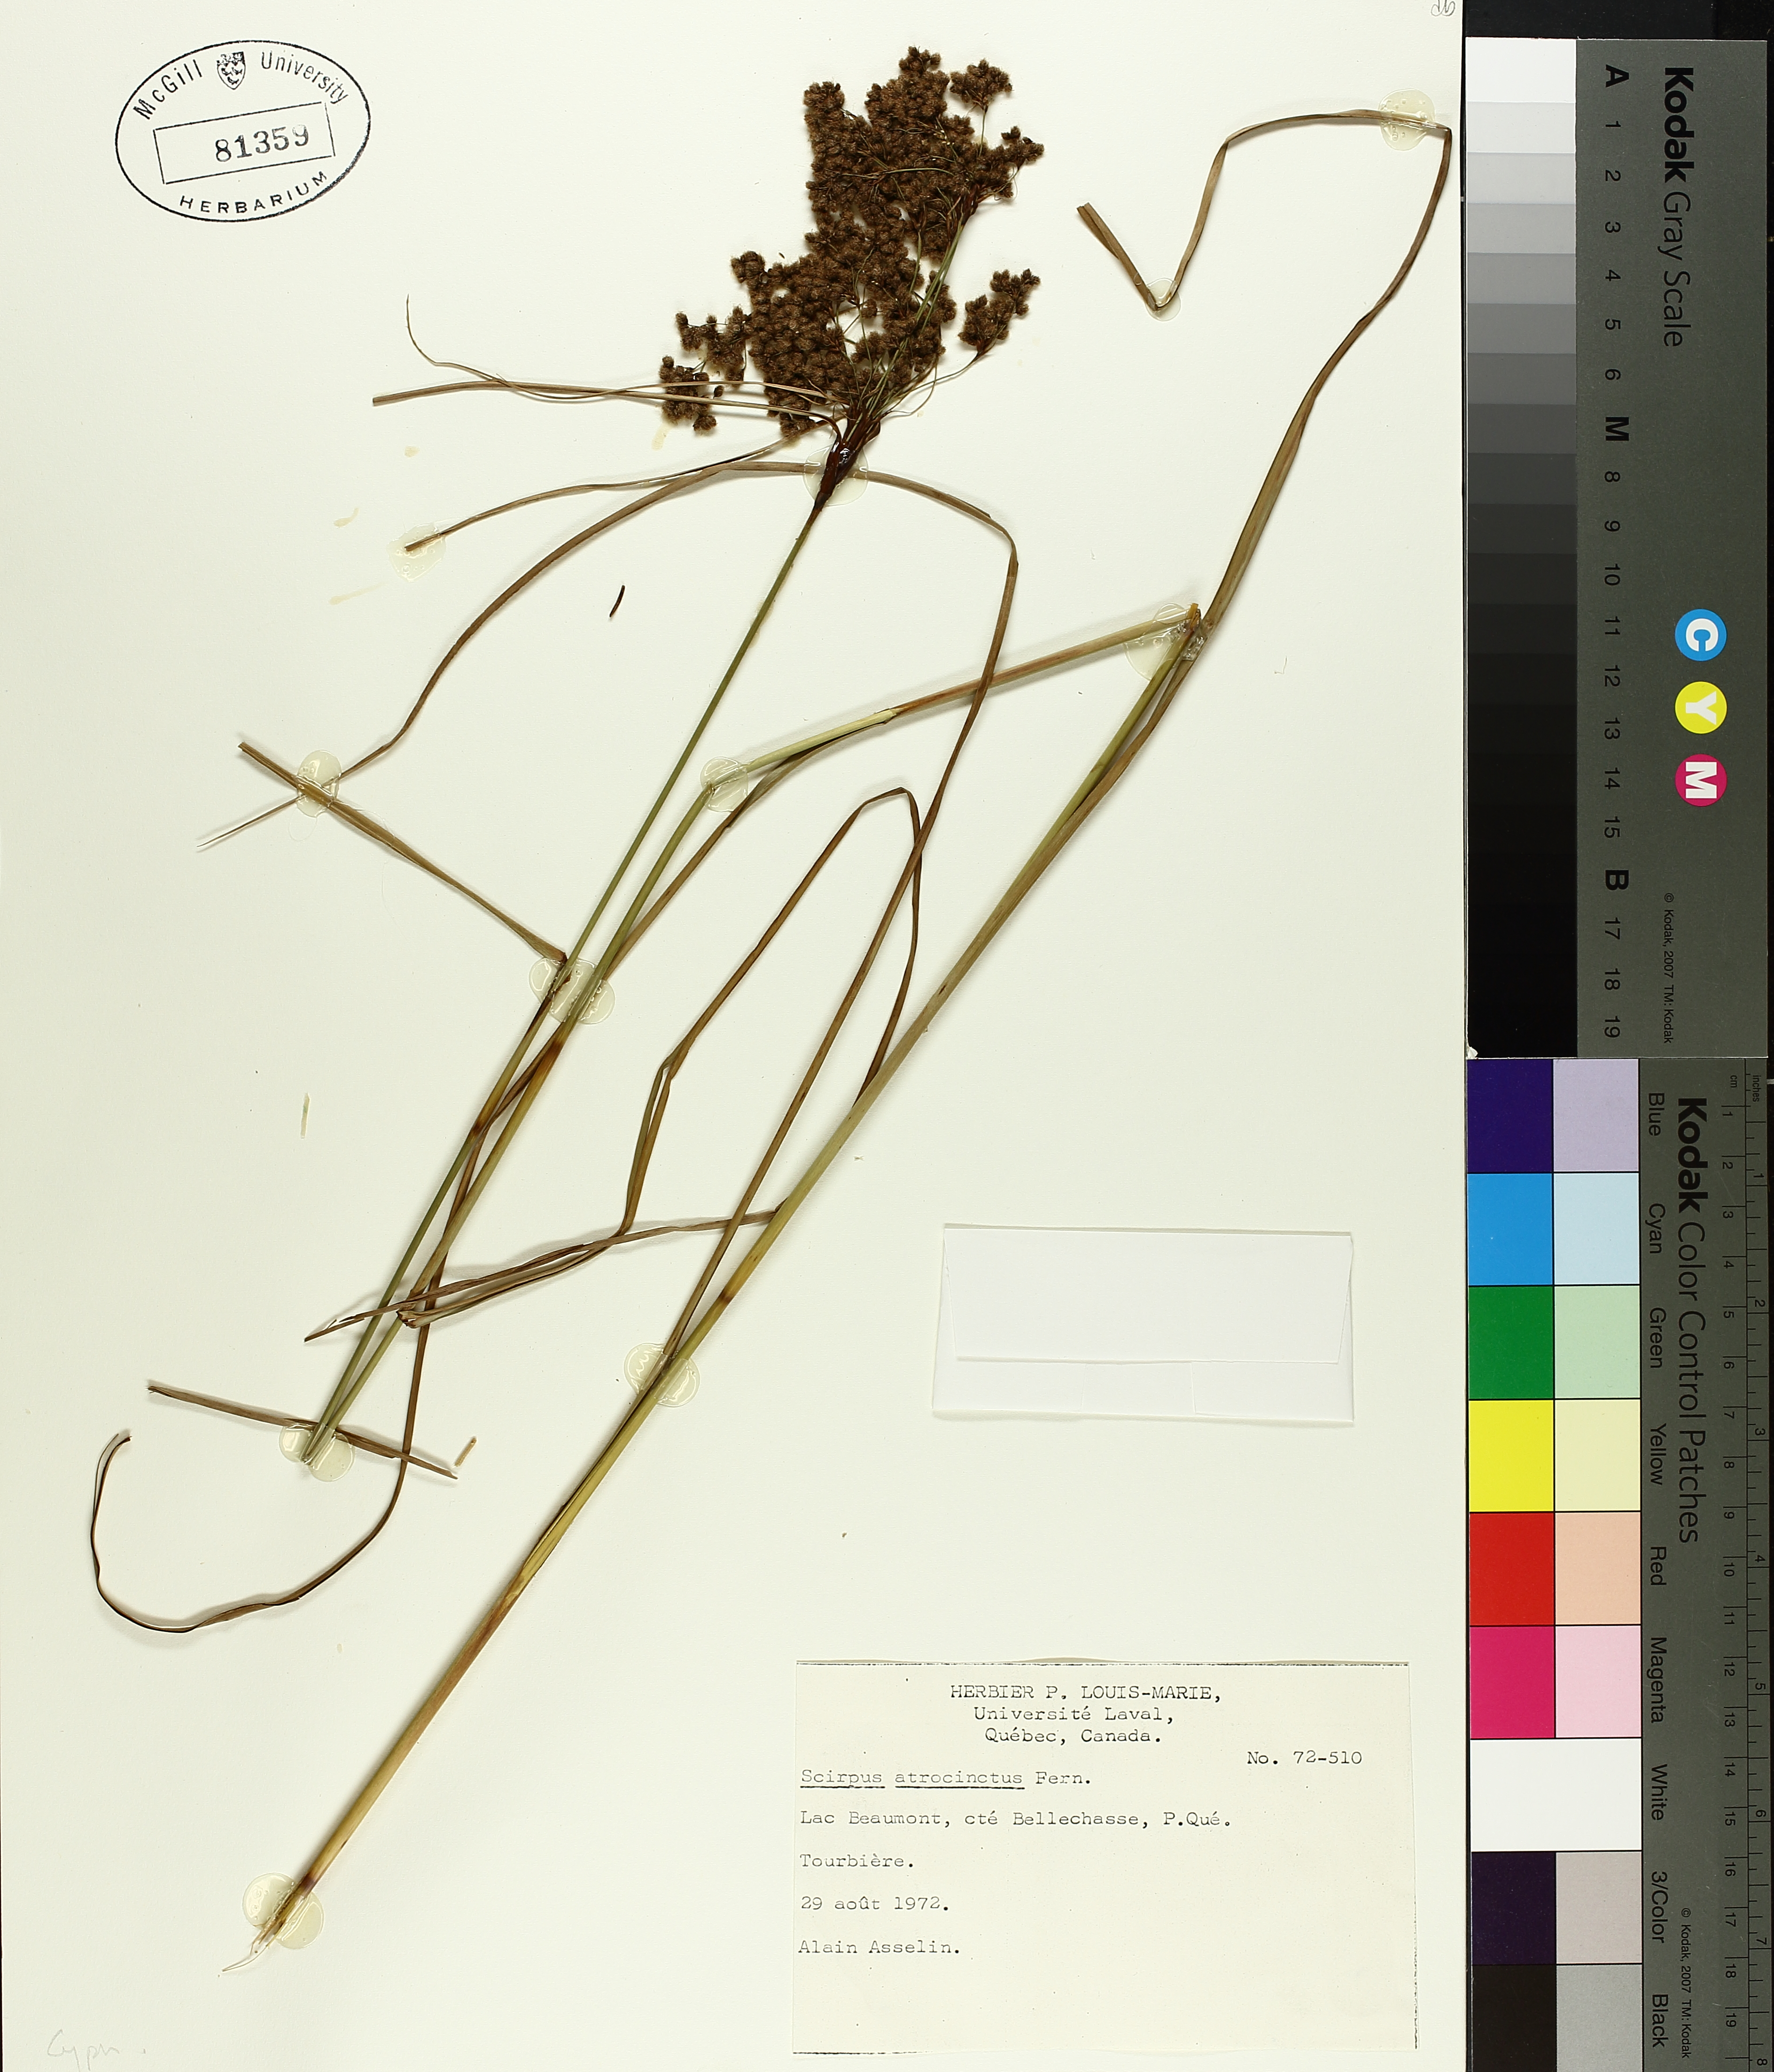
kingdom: Plantae
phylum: Tracheophyta
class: Liliopsida
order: Poales
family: Cyperaceae
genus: Scirpus
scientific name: Scirpus atrocinctus
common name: Black-girdled bulrush
